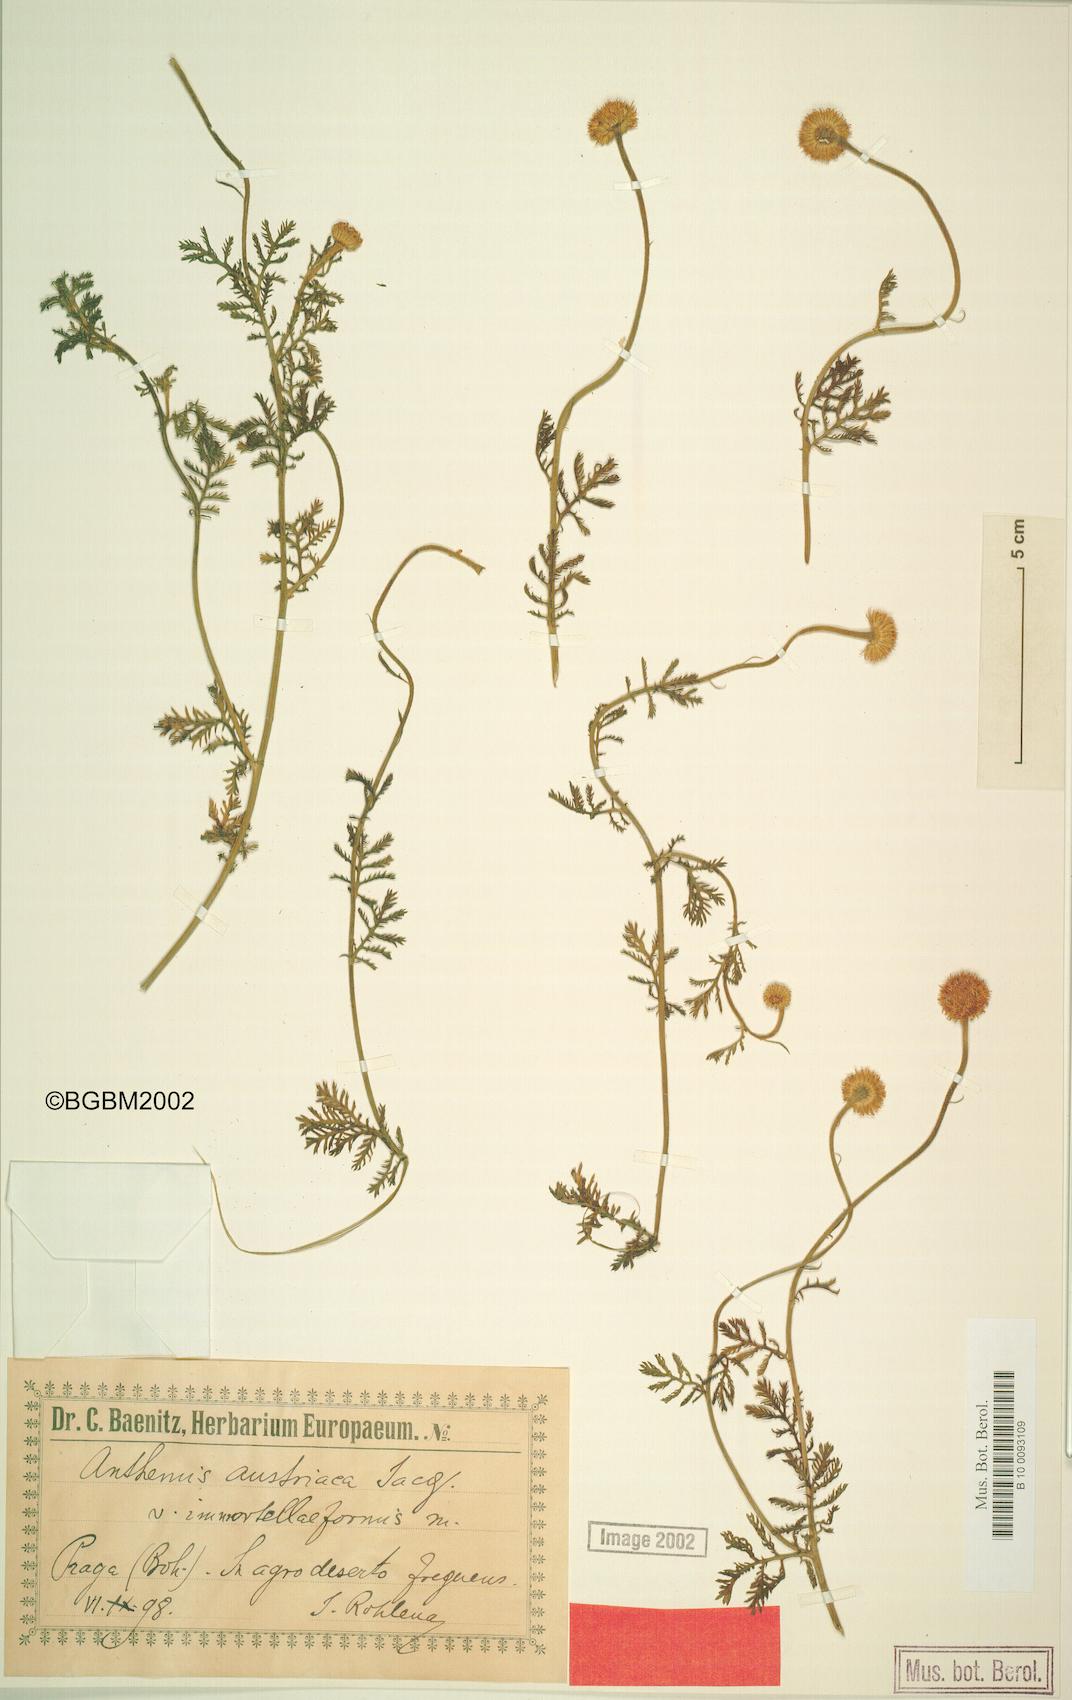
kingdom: Plantae
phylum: Tracheophyta
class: Magnoliopsida
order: Asterales
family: Asteraceae
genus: Cota
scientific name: Cota austriaca
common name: Austrian chamomile
